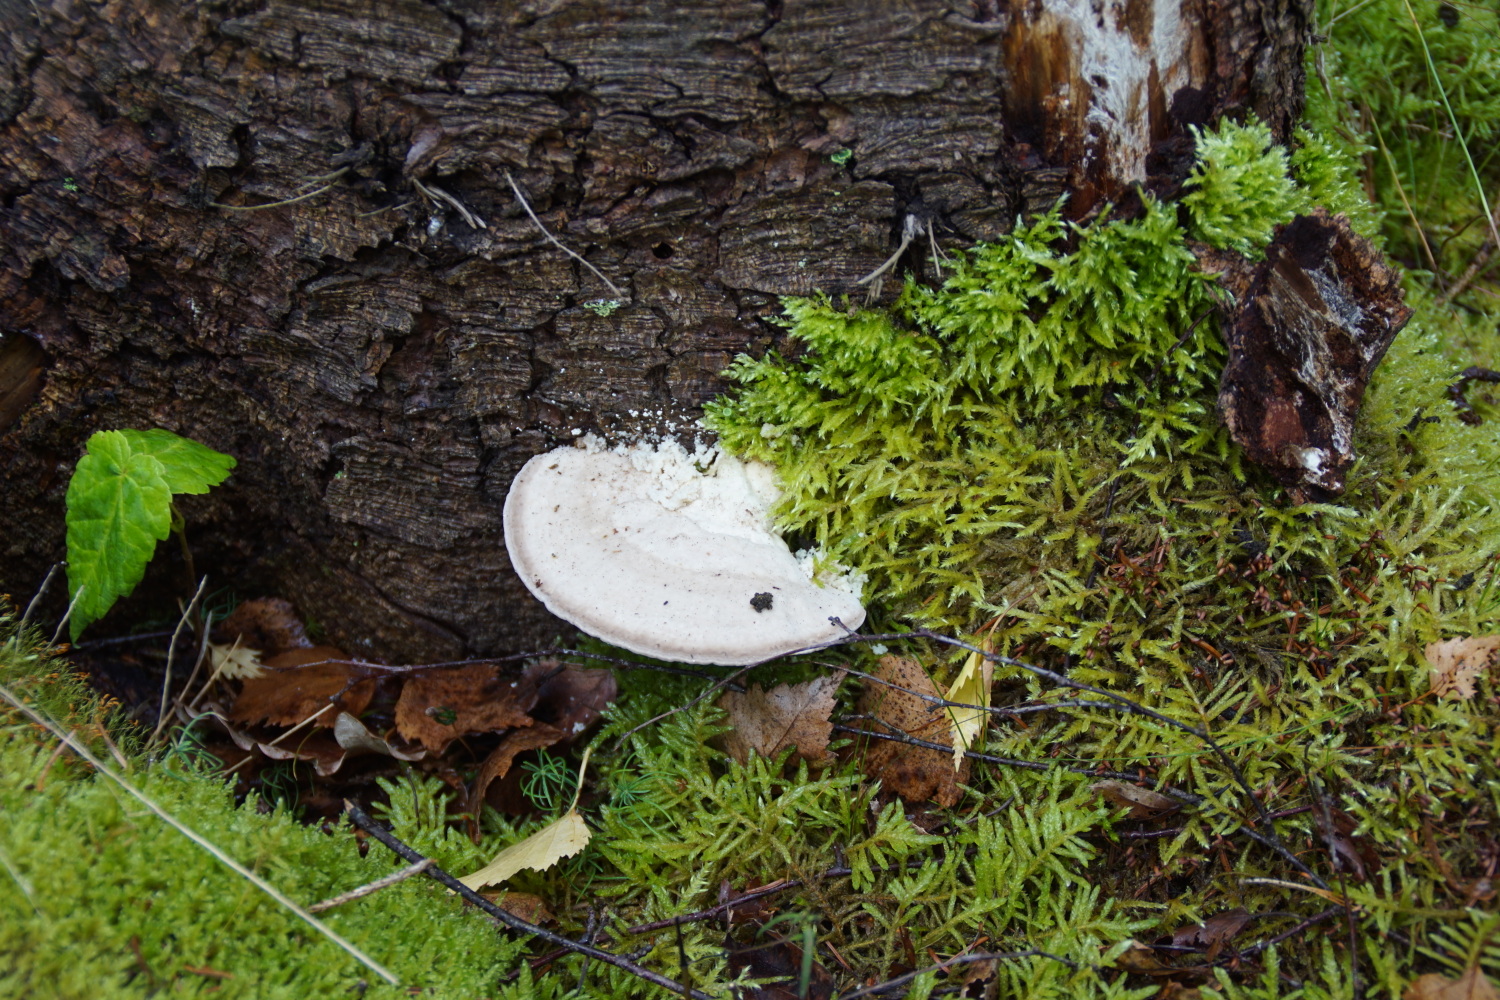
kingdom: Fungi
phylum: Basidiomycota
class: Agaricomycetes
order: Polyporales
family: Polyporaceae
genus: Trametes
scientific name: Trametes gibbosa
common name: puklet læderporesvamp
